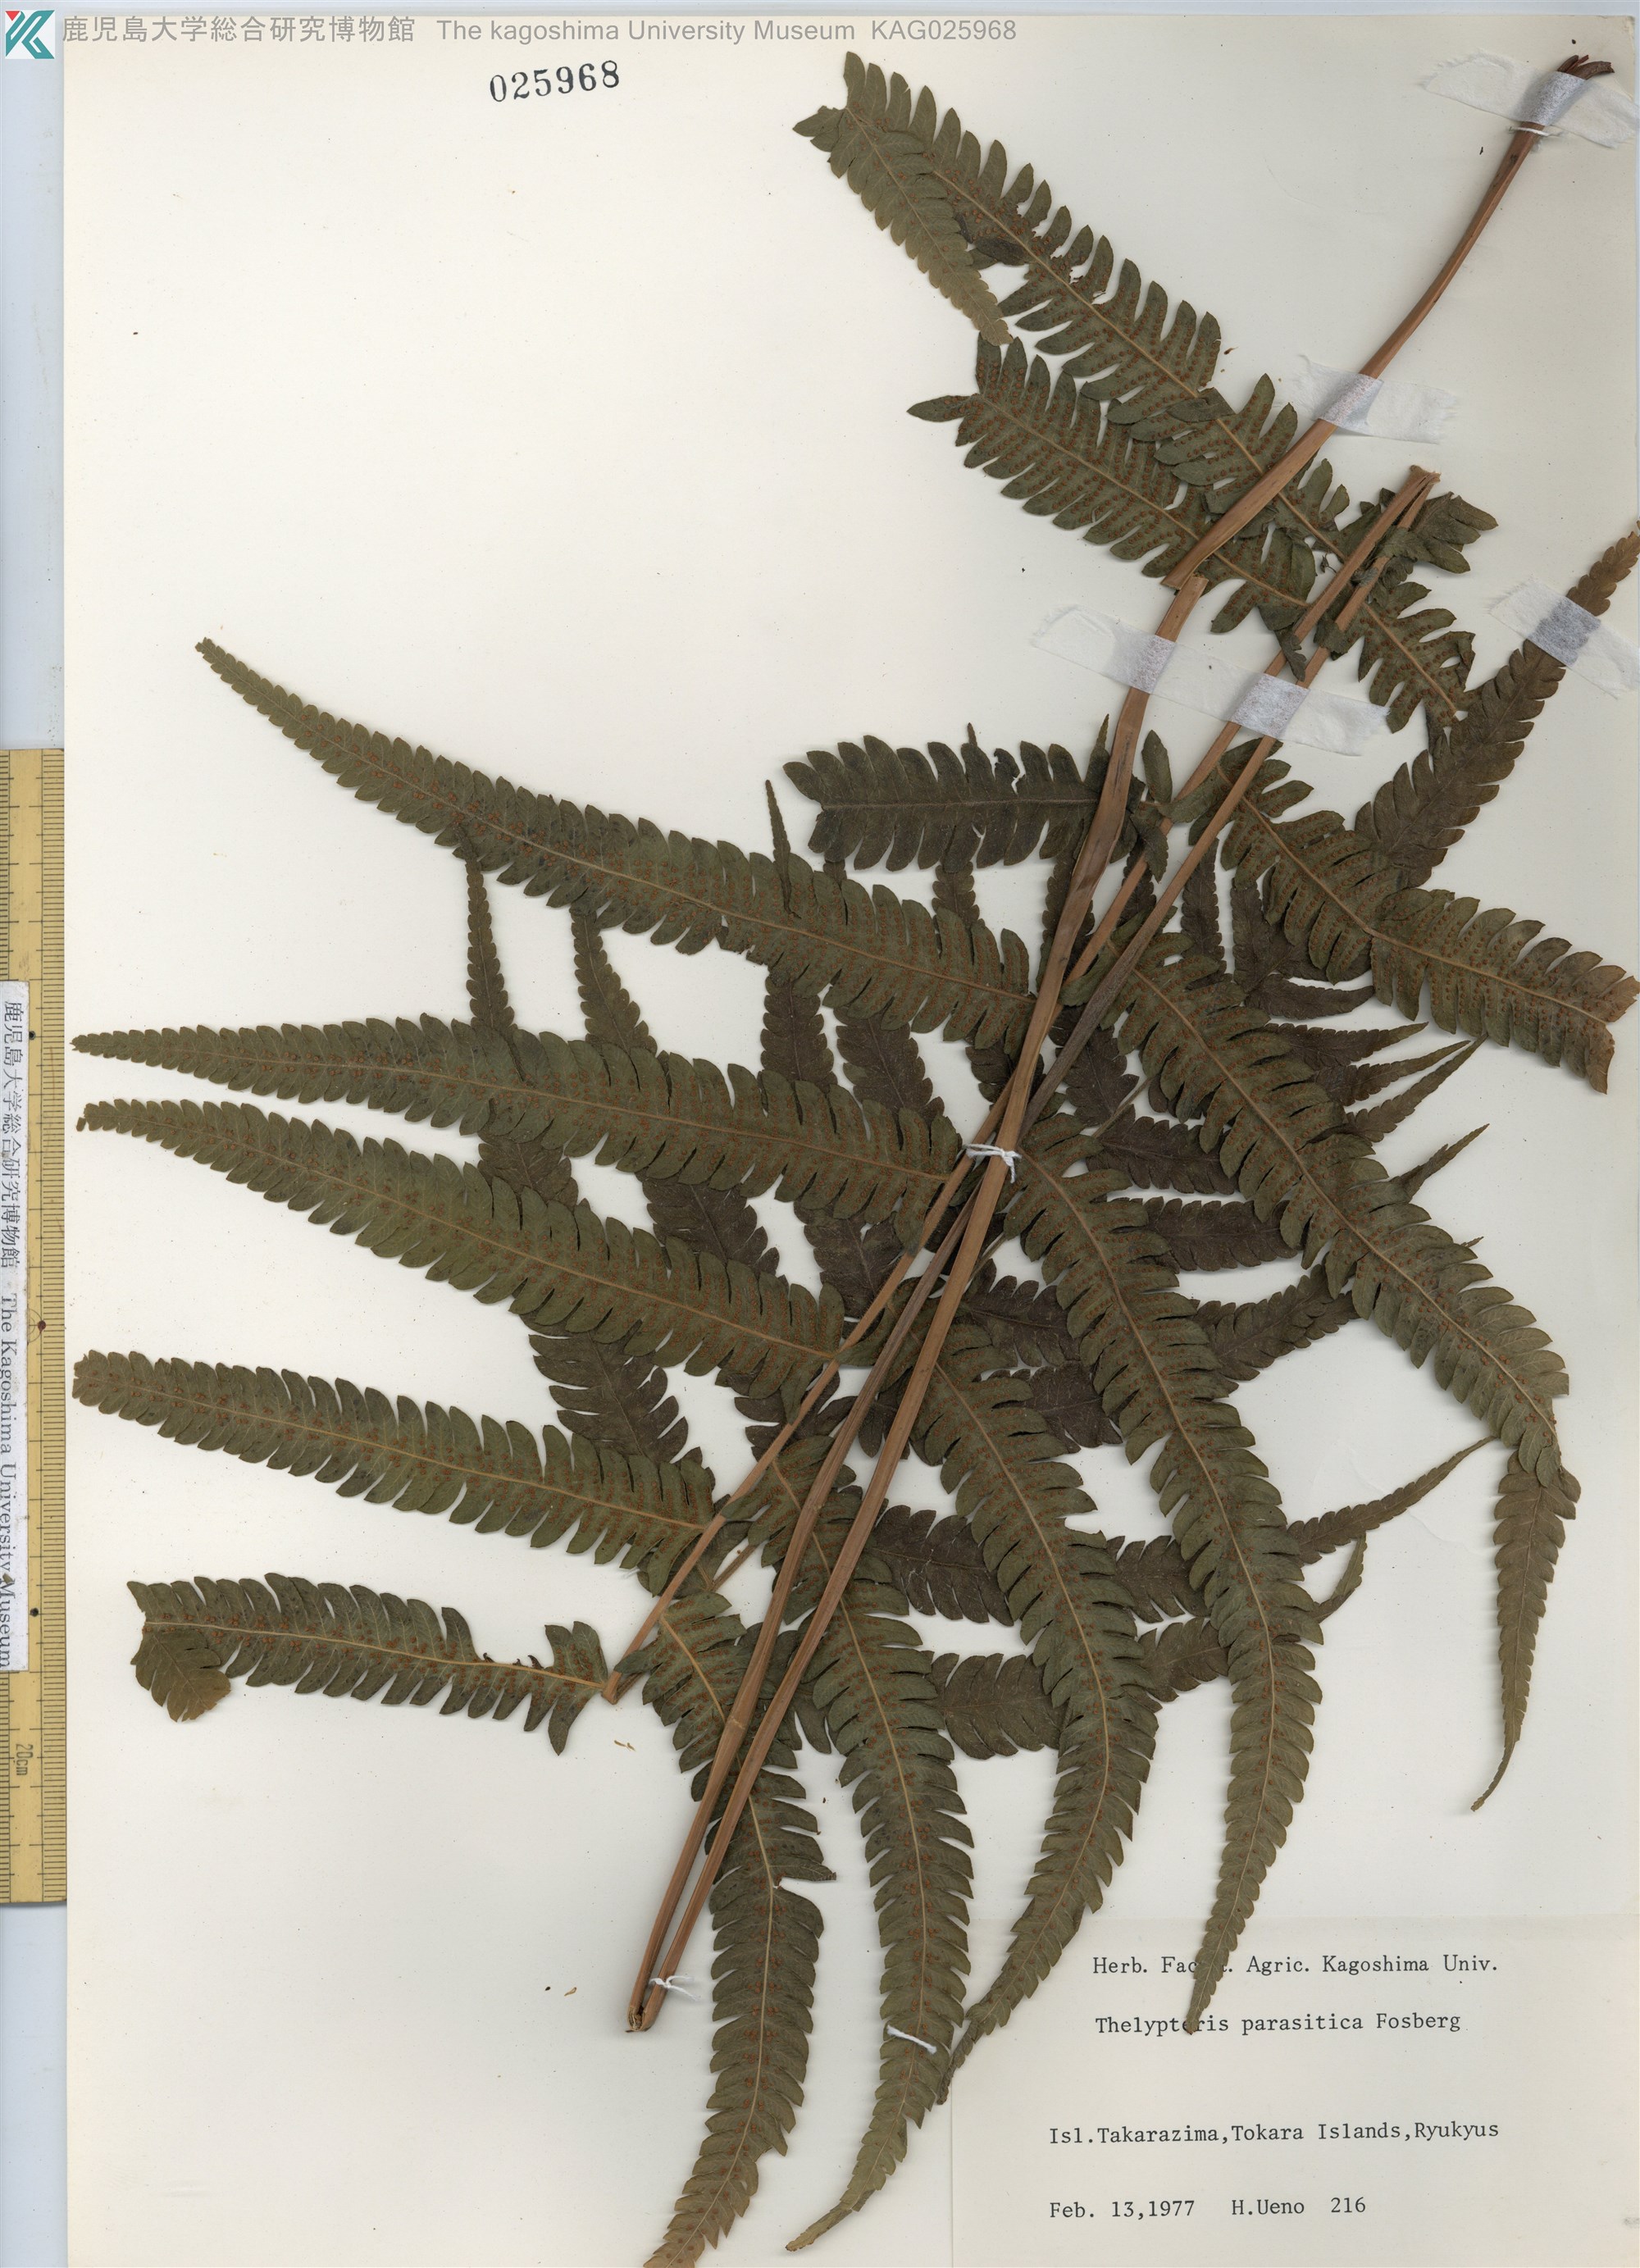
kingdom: Plantae
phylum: Tracheophyta
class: Polypodiopsida
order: Polypodiales
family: Thelypteridaceae
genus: Christella
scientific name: Christella parasitica
